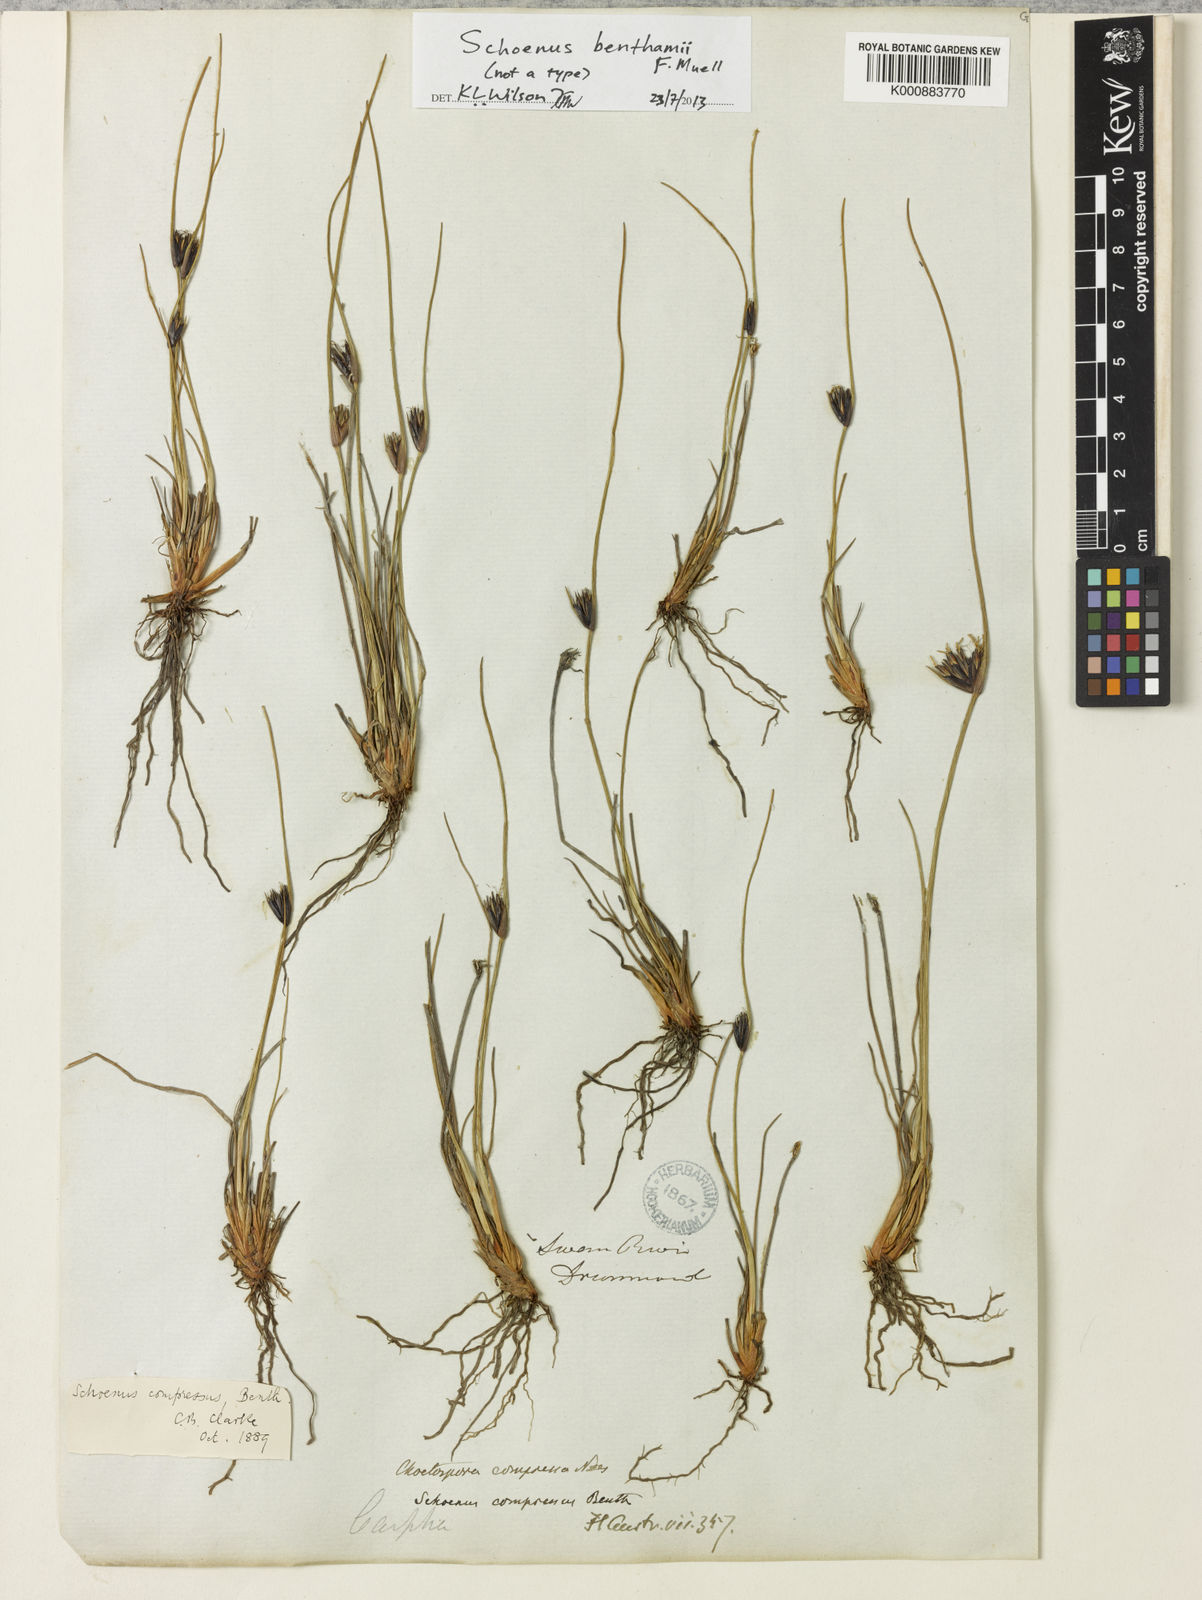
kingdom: Plantae
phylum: Tracheophyta
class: Liliopsida
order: Poales
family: Cyperaceae
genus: Schoenus
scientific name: Schoenus benthamii
